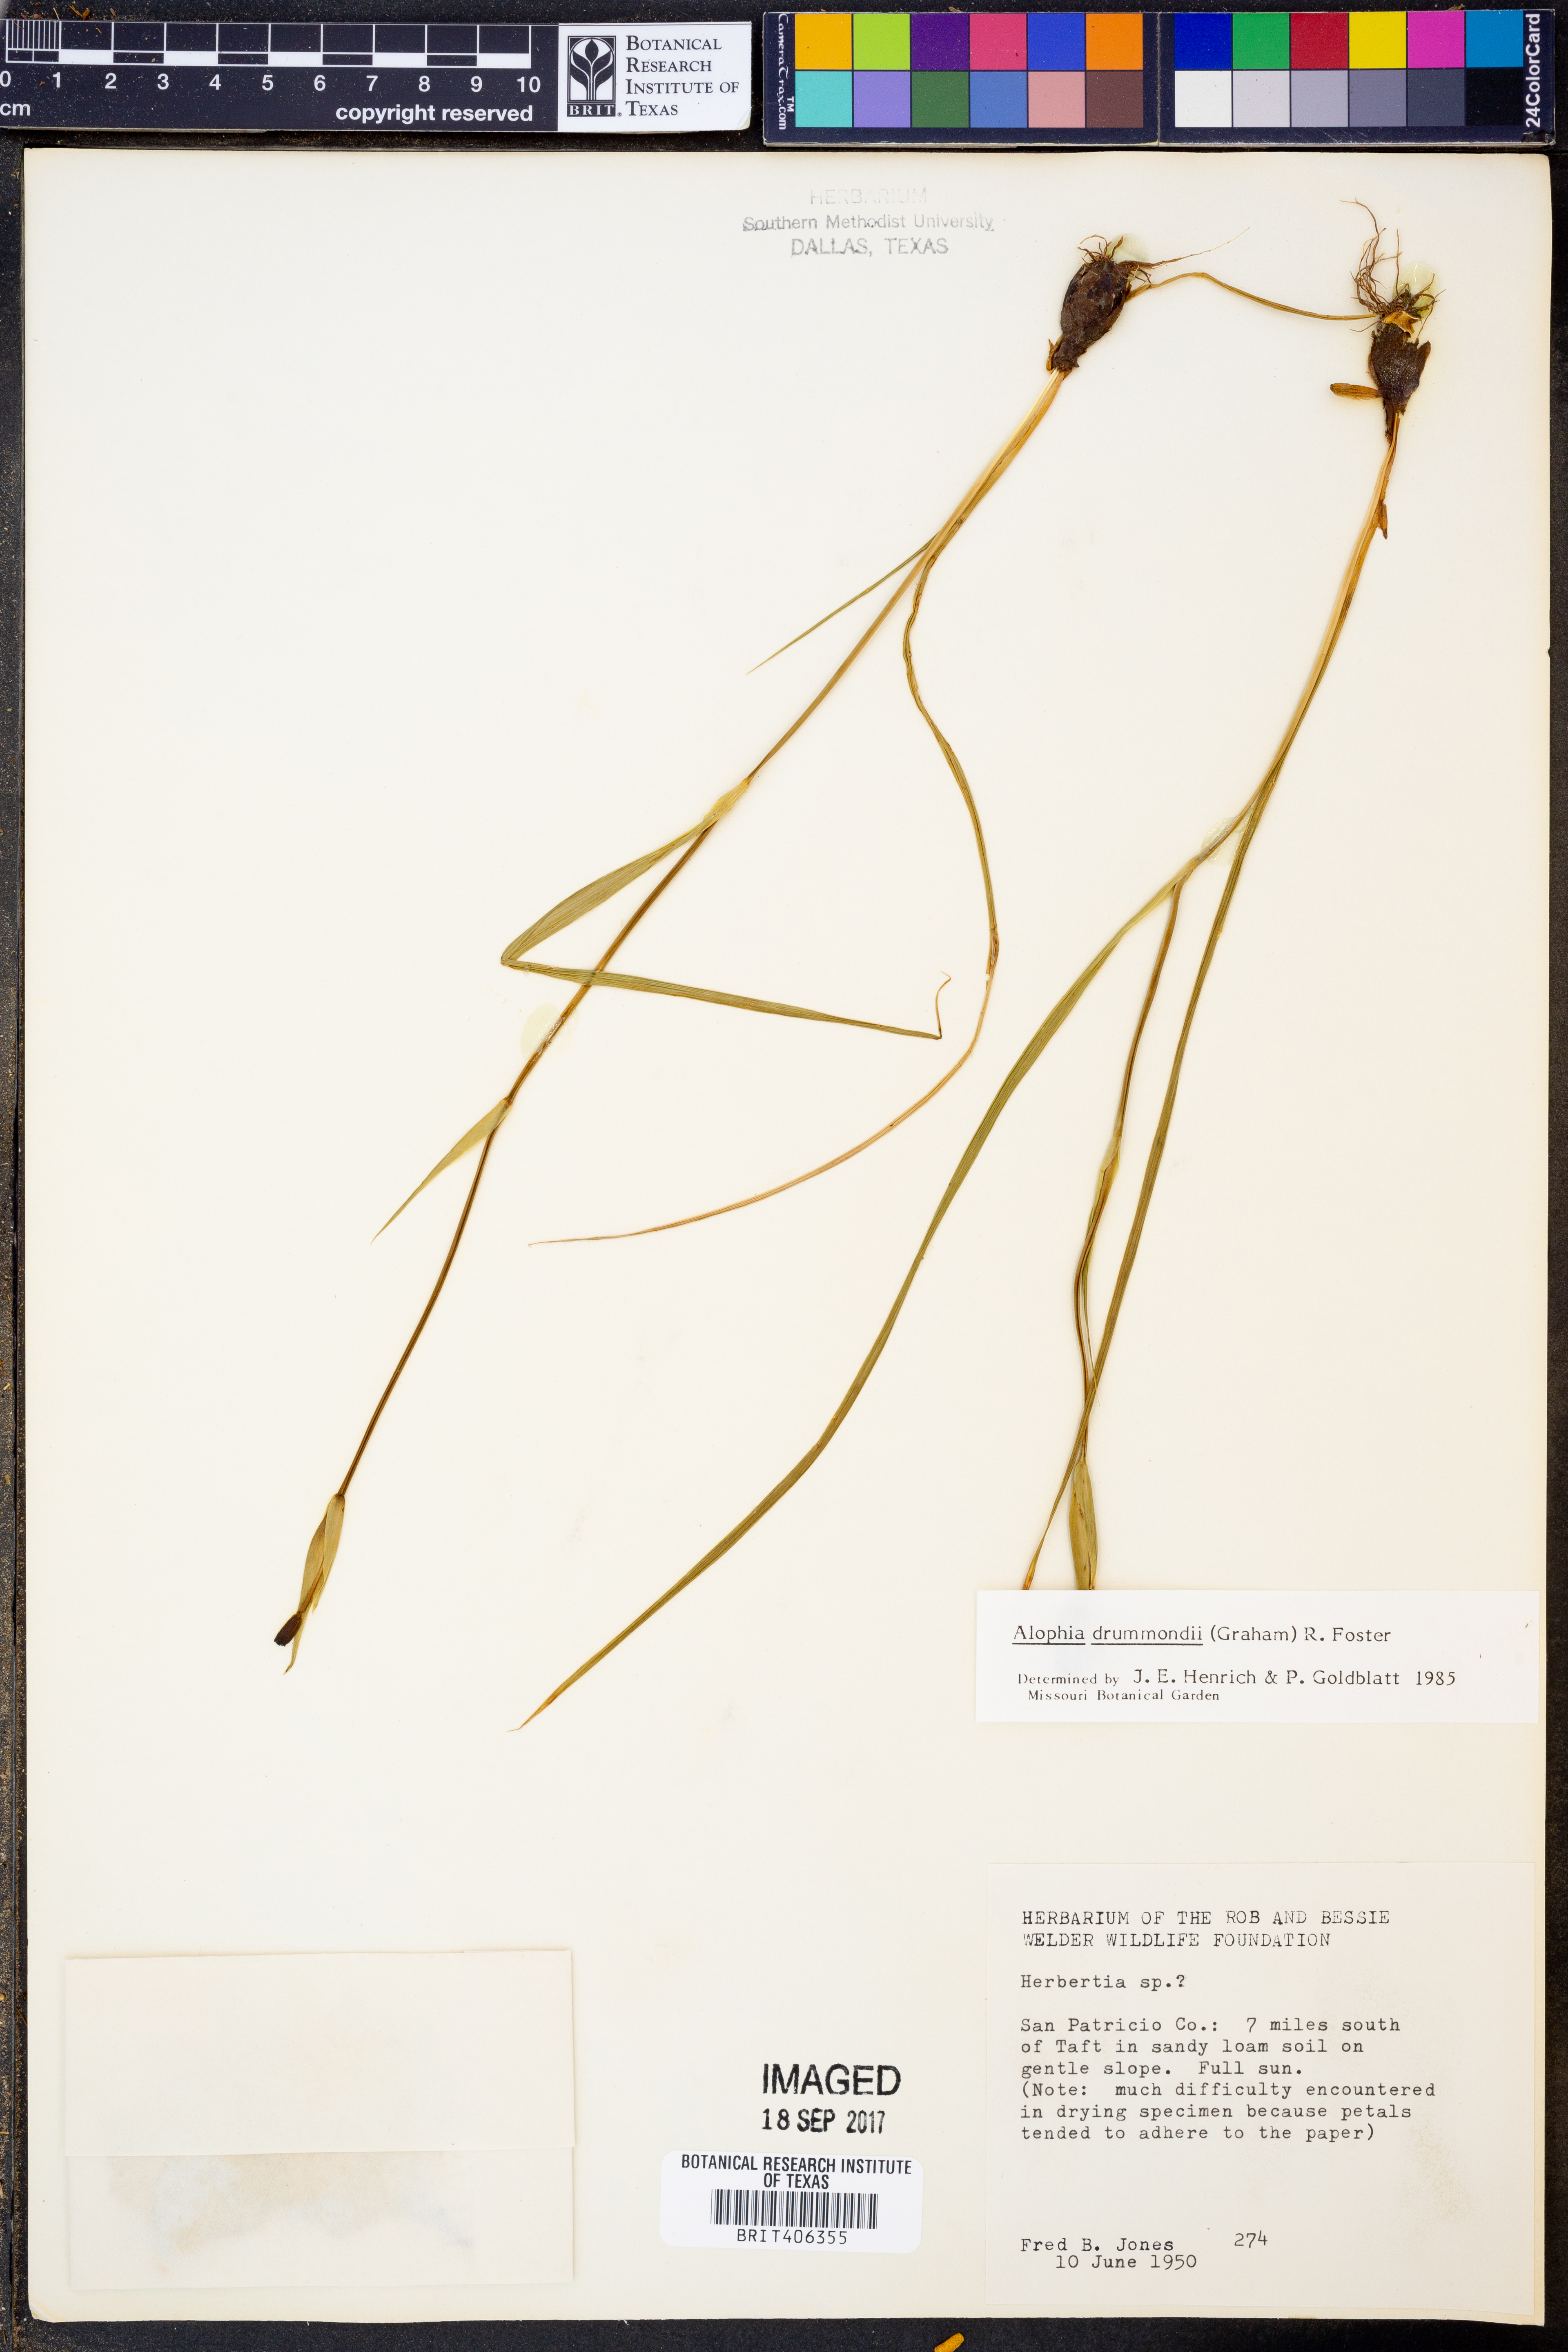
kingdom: Plantae
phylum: Tracheophyta
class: Liliopsida
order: Asparagales
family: Iridaceae
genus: Alophia
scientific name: Alophia drummondii
